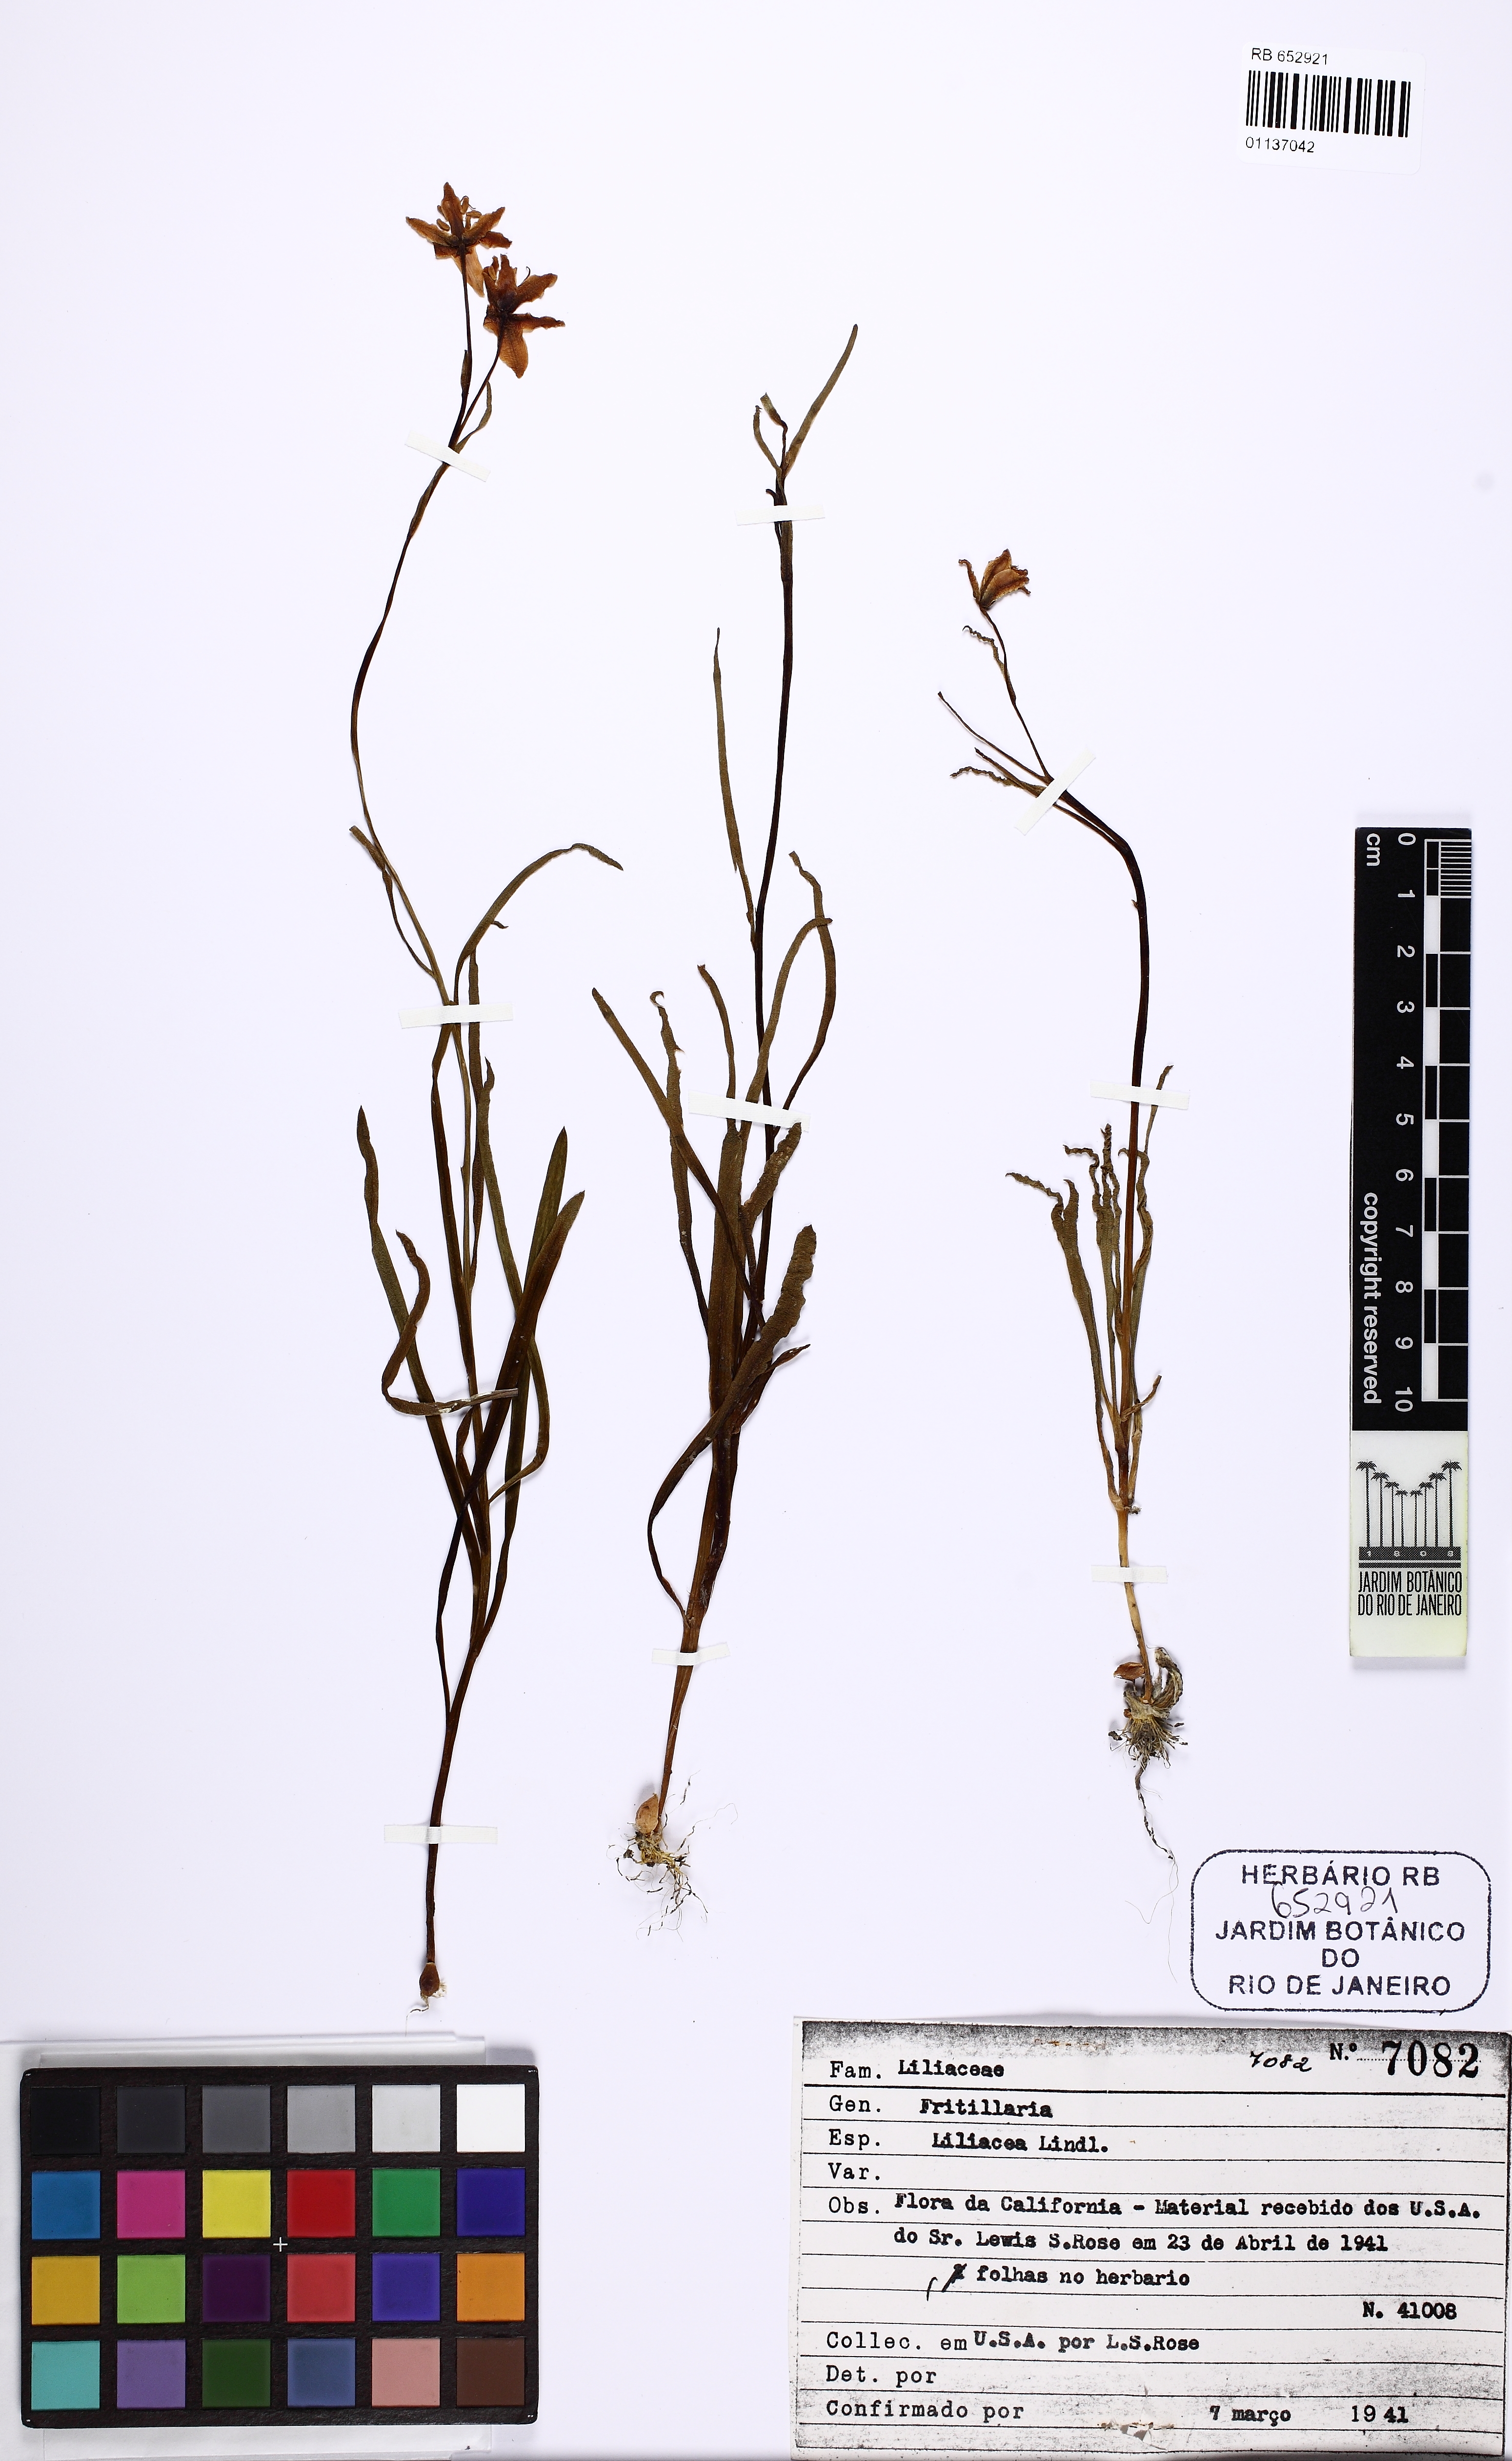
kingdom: Plantae
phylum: Tracheophyta
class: Liliopsida
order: Liliales
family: Liliaceae
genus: Fritillaria
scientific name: Fritillaria
